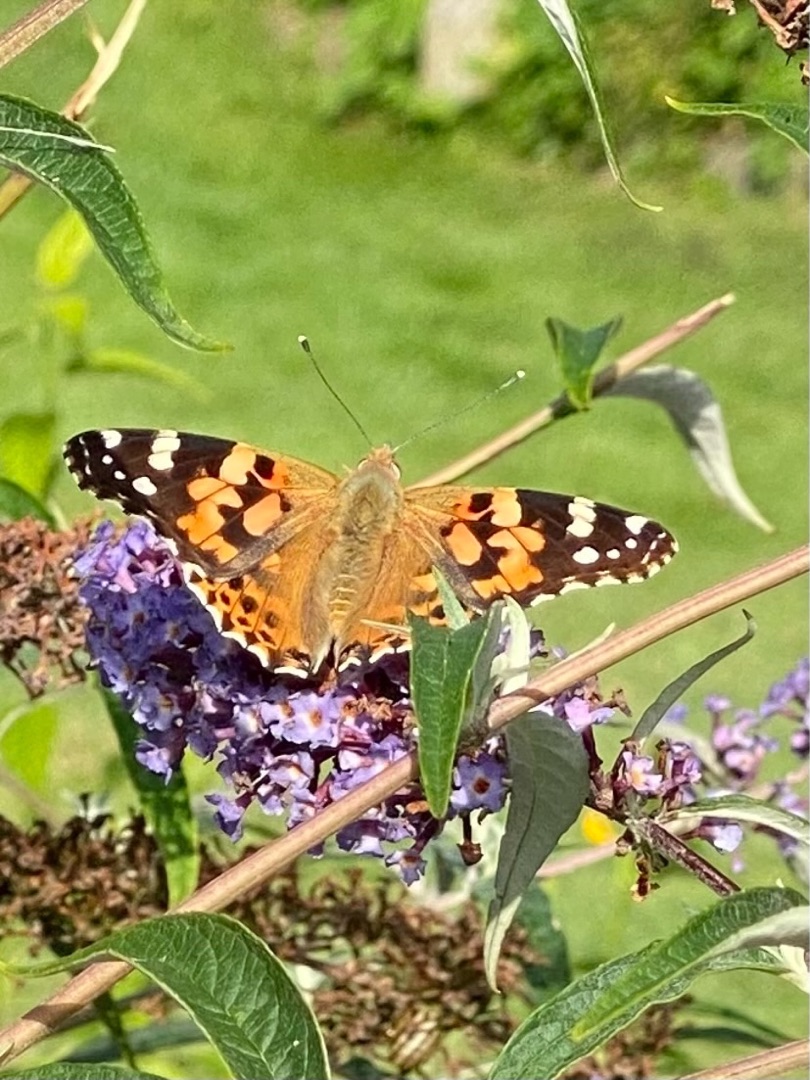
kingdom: Animalia
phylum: Arthropoda
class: Insecta
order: Lepidoptera
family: Nymphalidae
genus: Vanessa
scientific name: Vanessa cardui
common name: Tidselsommerfugl
